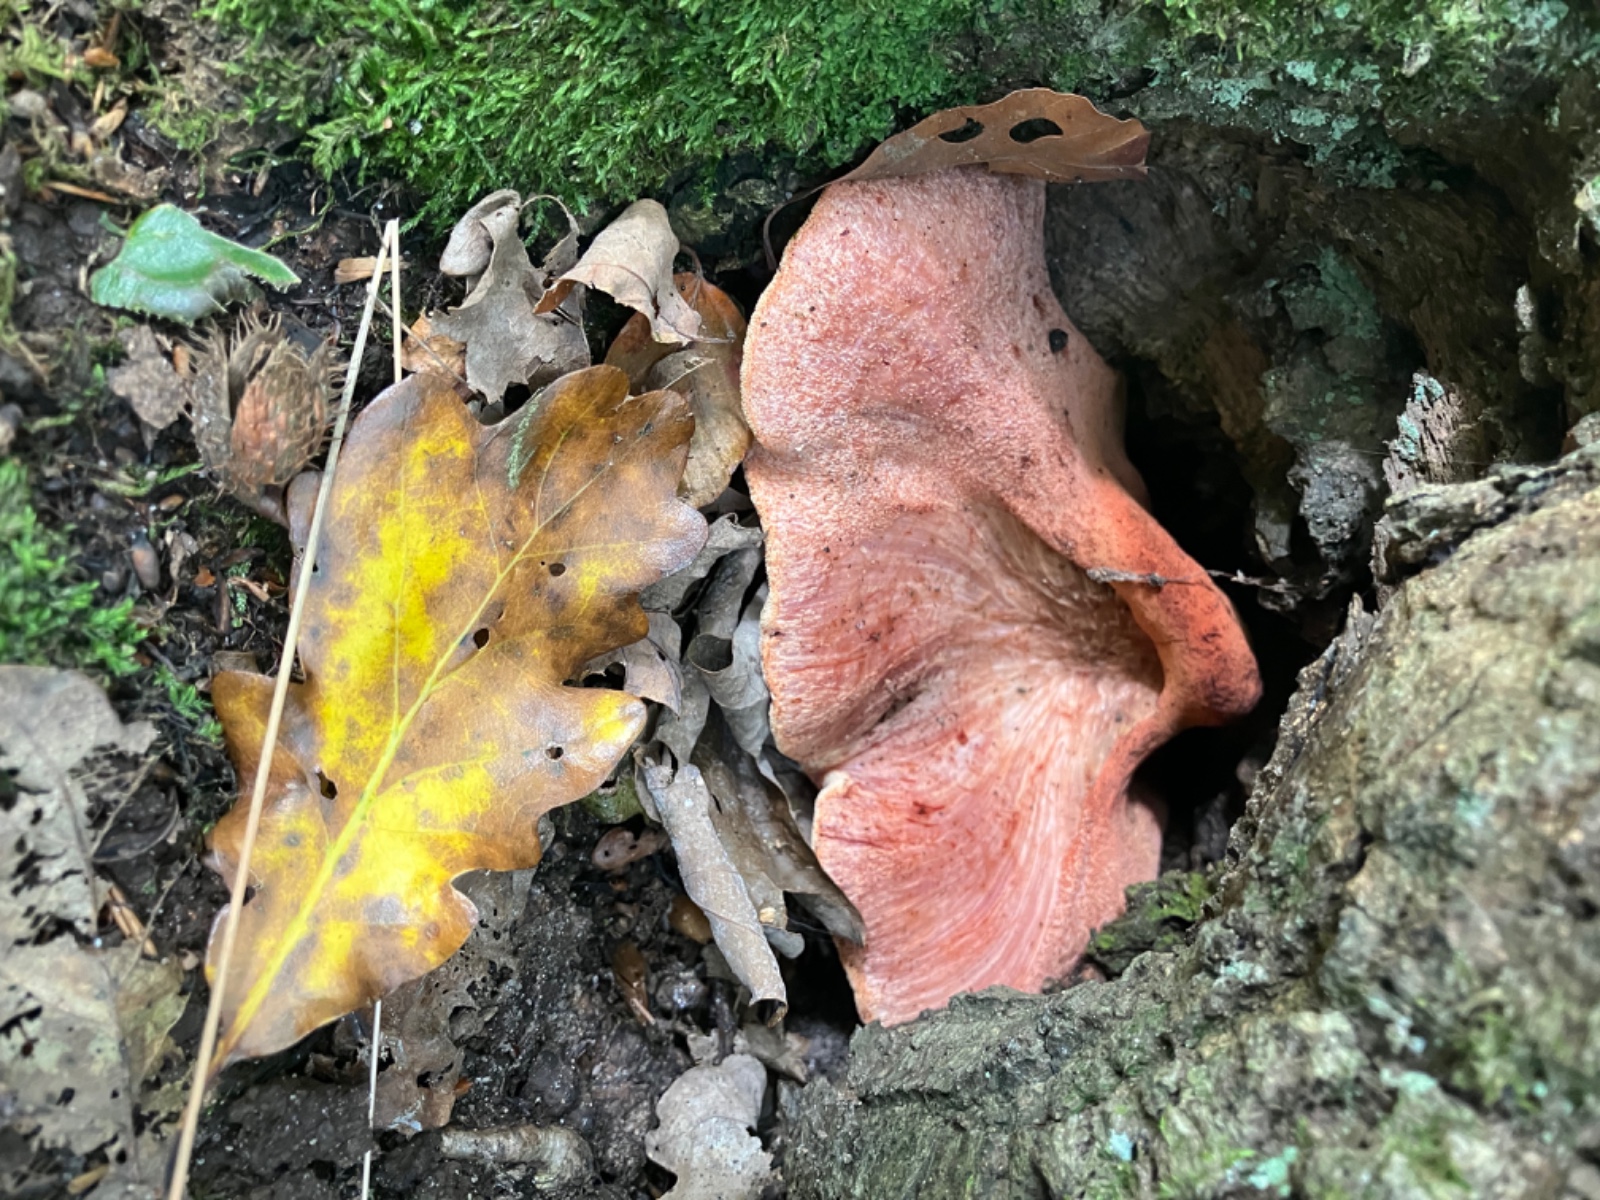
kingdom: Fungi
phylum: Basidiomycota
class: Agaricomycetes
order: Agaricales
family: Fistulinaceae
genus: Fistulina
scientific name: Fistulina hepatica
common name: oksetunge
